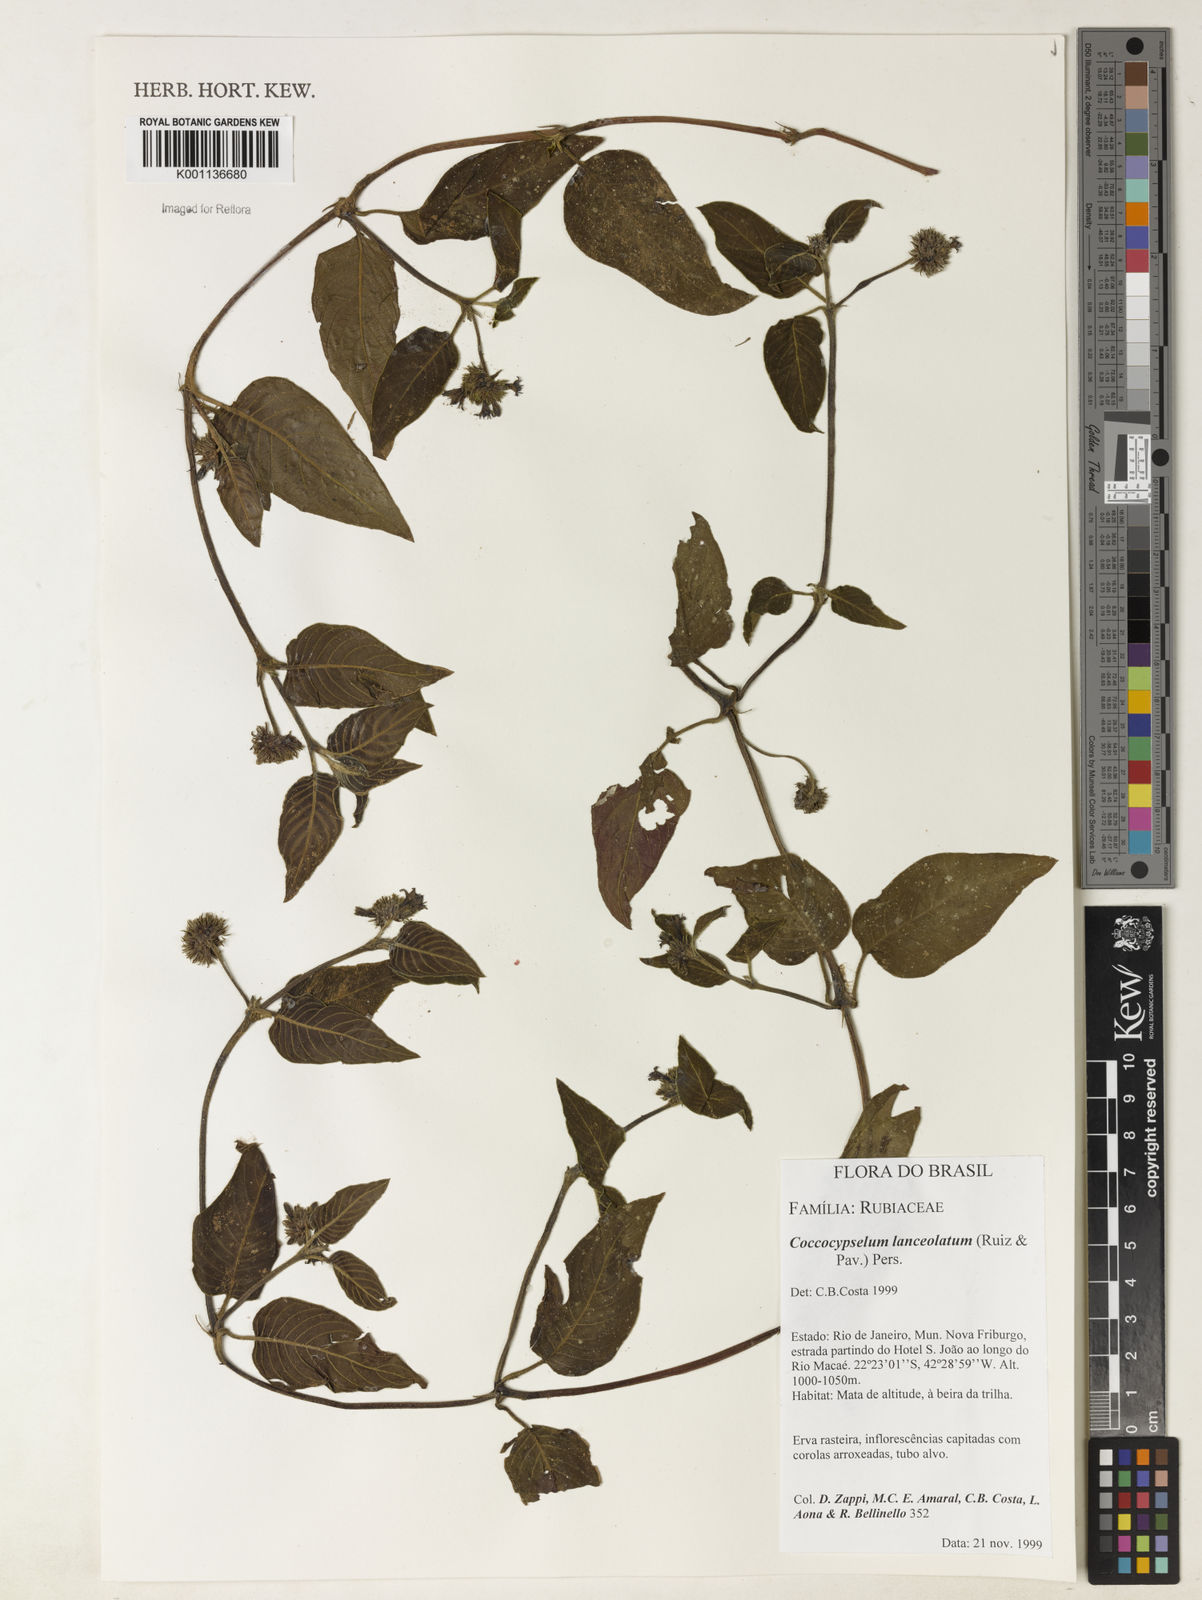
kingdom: Plantae
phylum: Tracheophyta
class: Magnoliopsida
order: Gentianales
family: Rubiaceae
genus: Coccocypselum
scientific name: Coccocypselum lanceolatum
